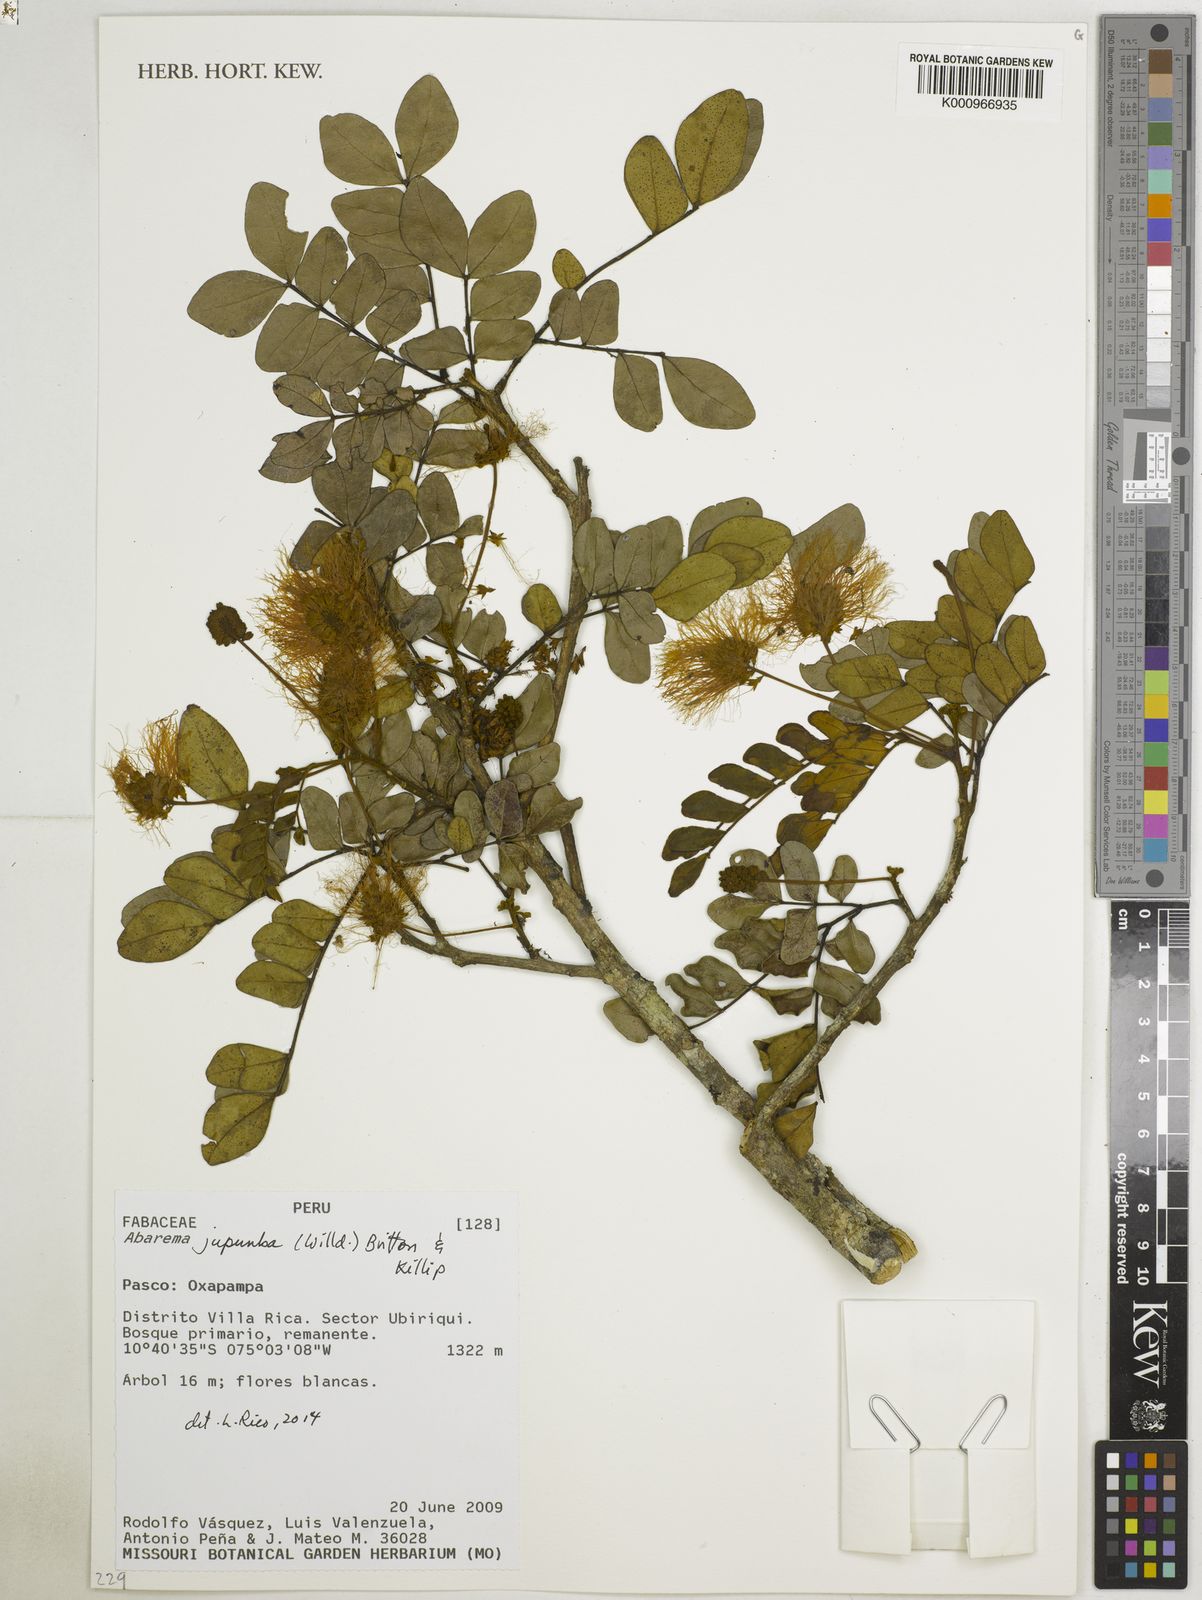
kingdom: Plantae
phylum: Tracheophyta
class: Magnoliopsida
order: Fabales
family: Fabaceae
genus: Jupunba
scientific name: Jupunba trapezifolia
